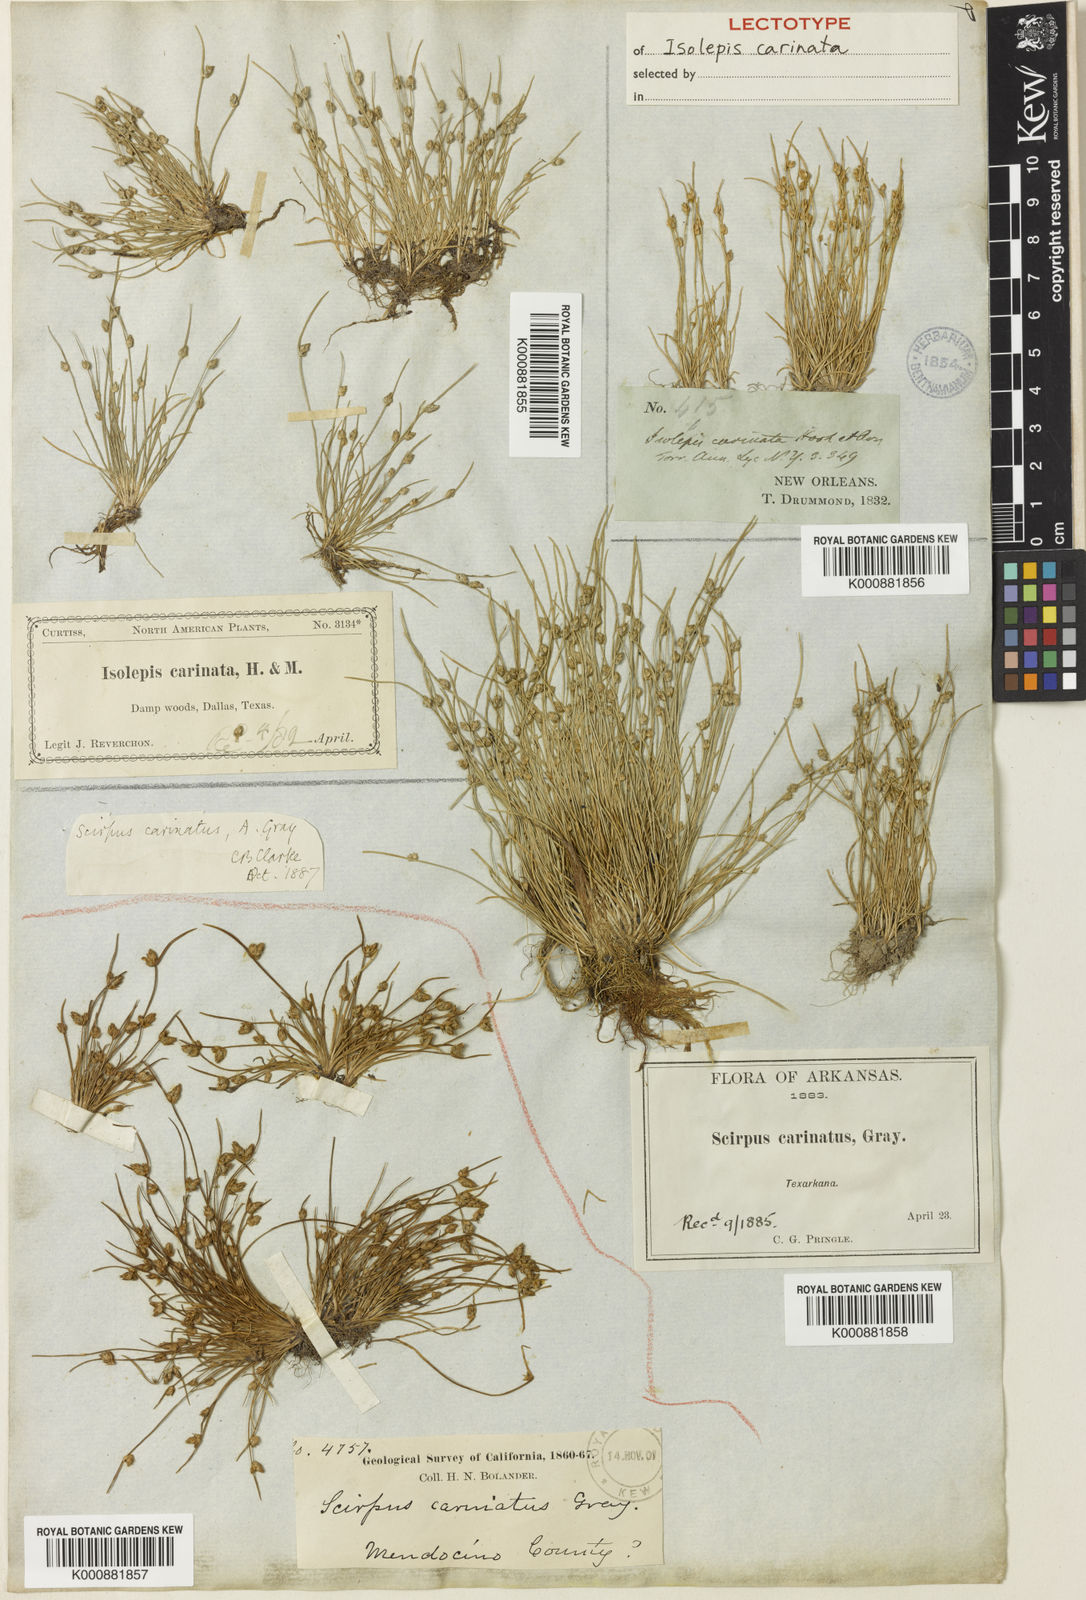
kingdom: Plantae
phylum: Tracheophyta
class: Liliopsida
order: Poales
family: Cyperaceae
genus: Isolepis
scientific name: Isolepis carinata
